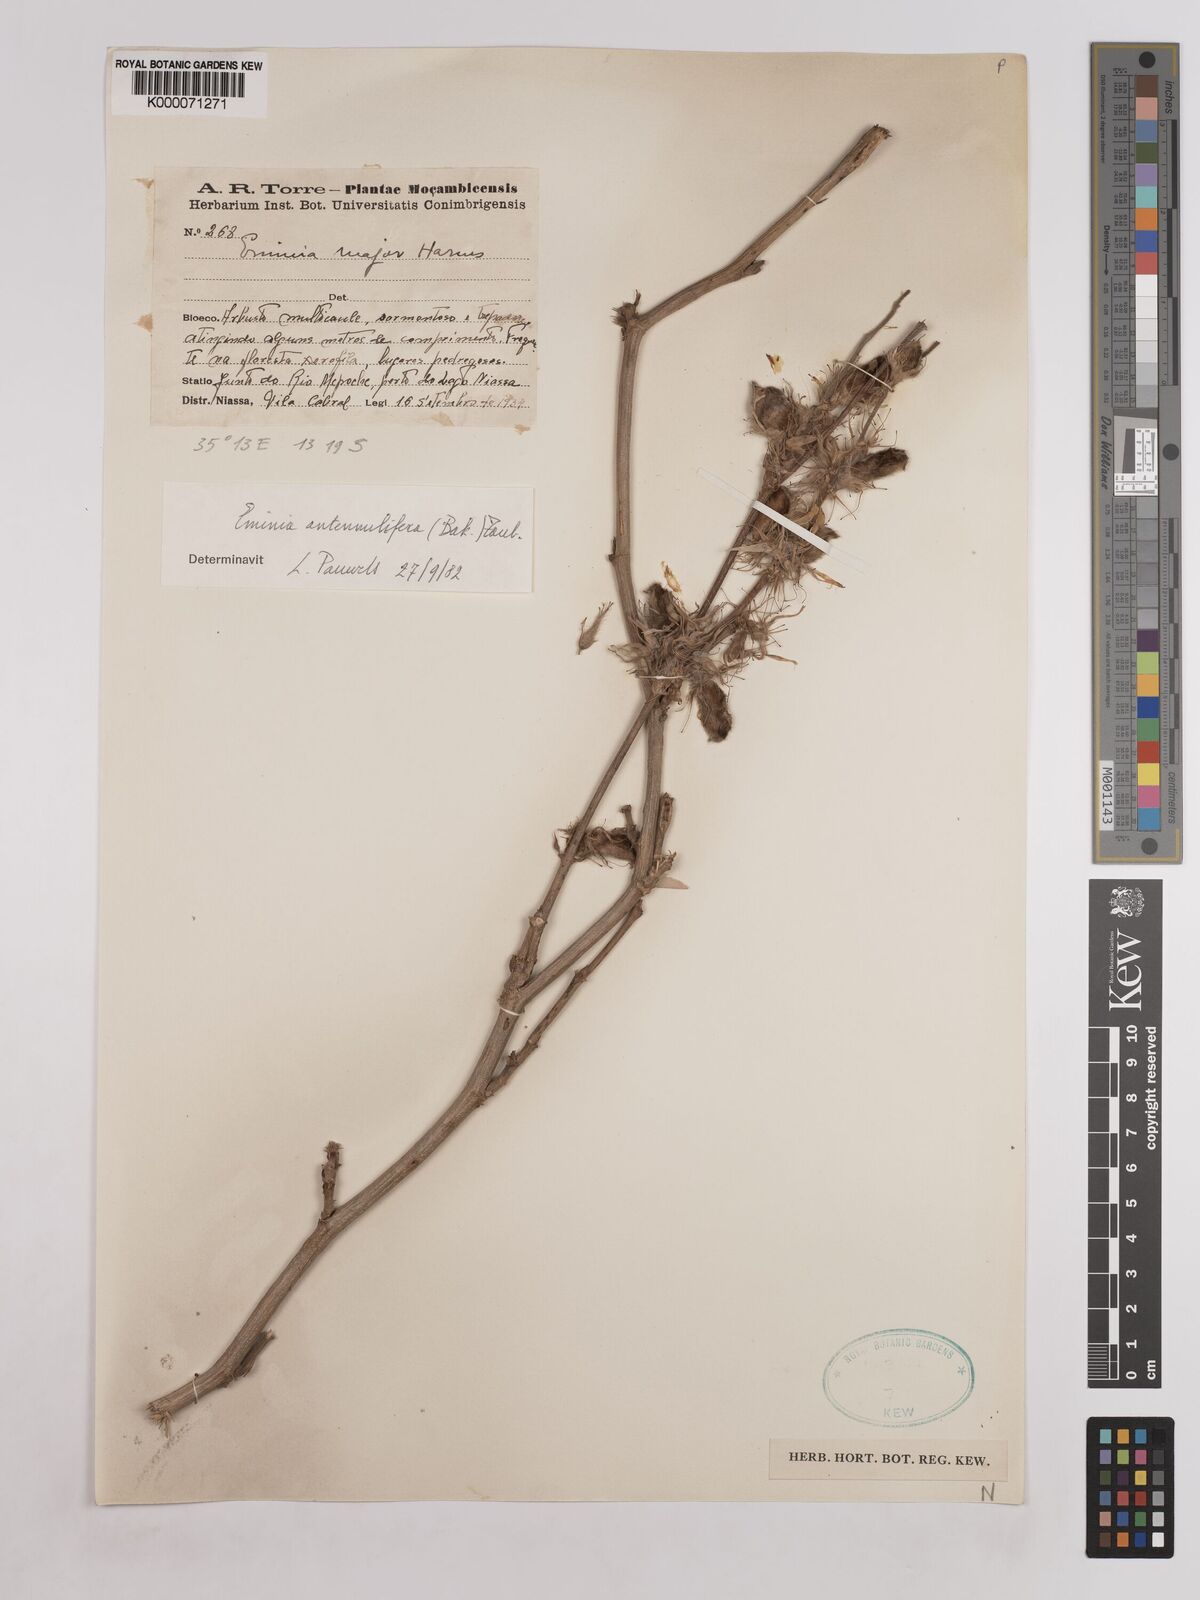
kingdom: Plantae
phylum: Tracheophyta
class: Magnoliopsida
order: Fabales
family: Fabaceae
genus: Eminia
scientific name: Eminia antennulifera
